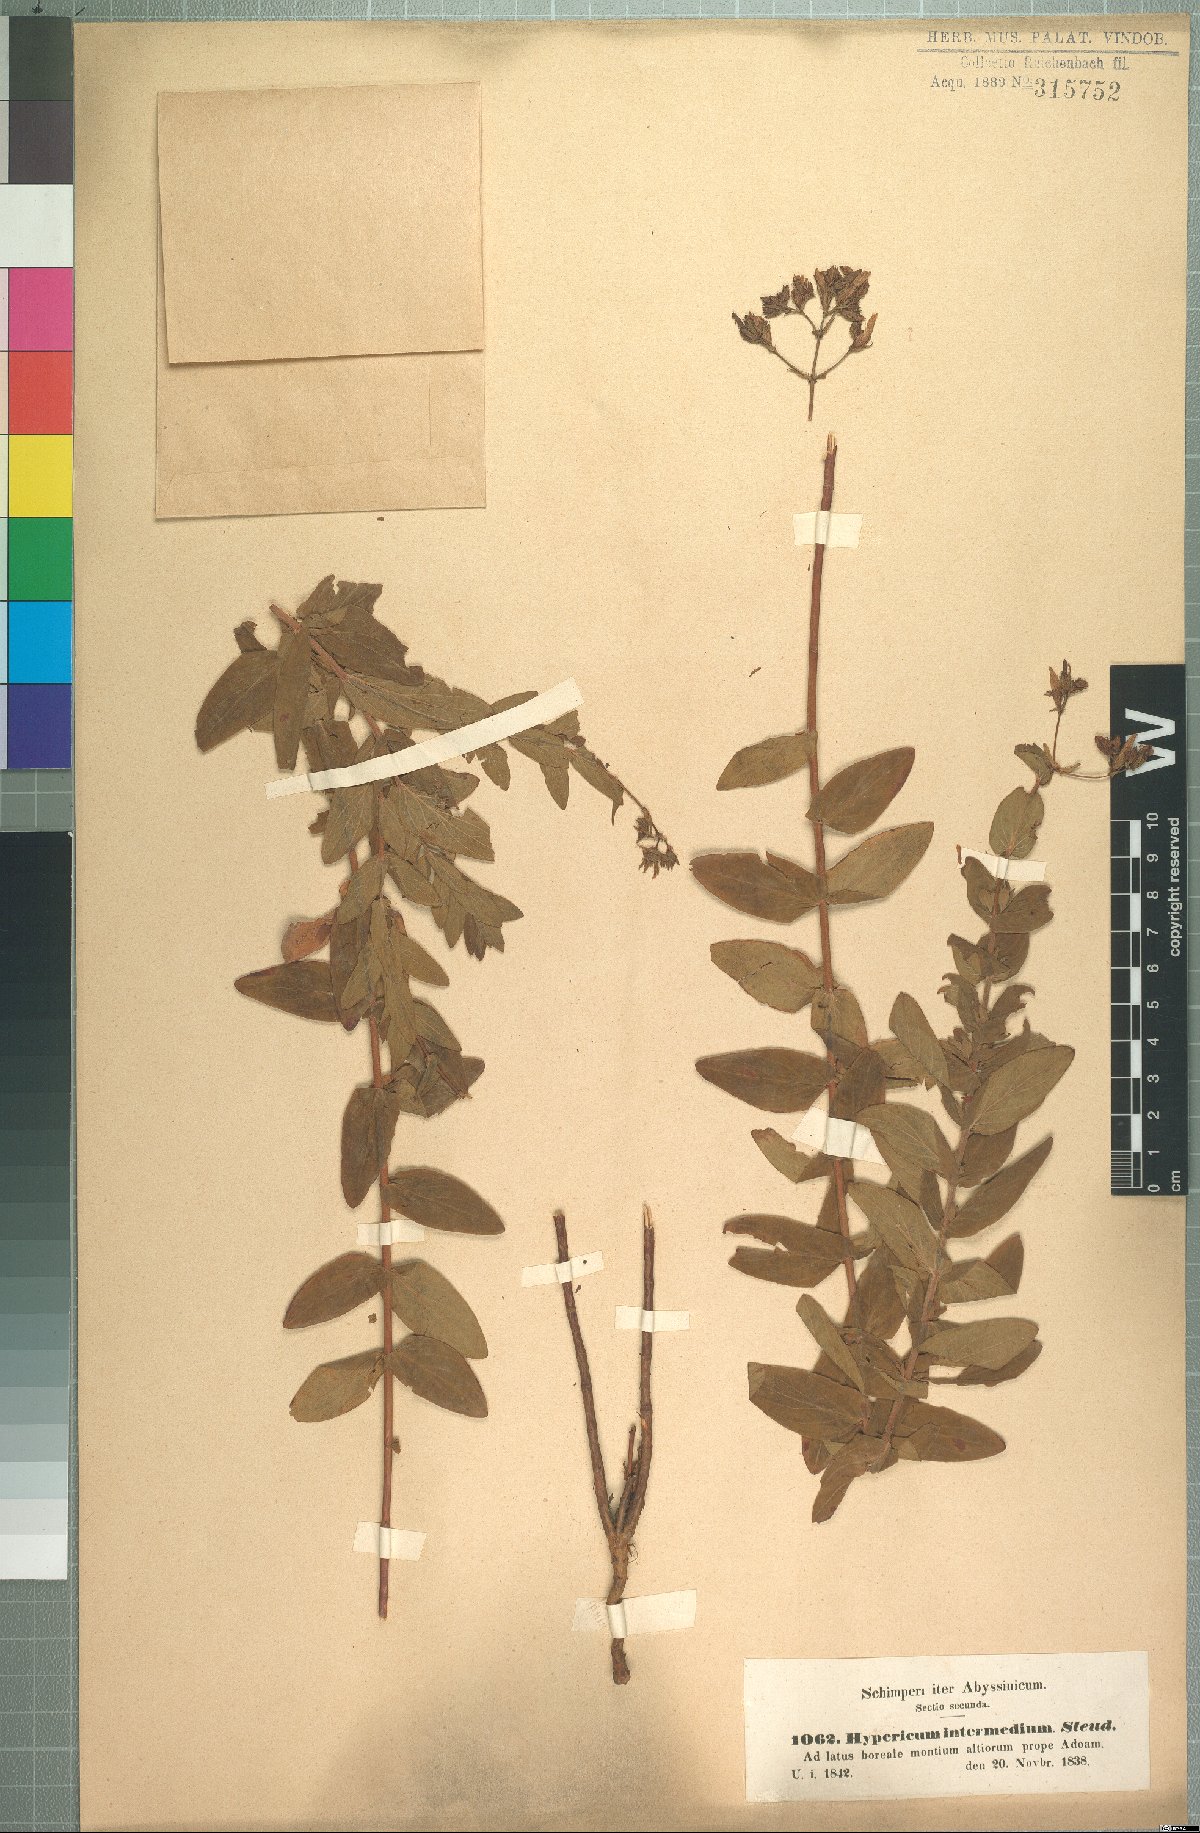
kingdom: Plantae
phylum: Tracheophyta
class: Magnoliopsida
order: Malpighiales
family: Hypericaceae
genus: Hypericum
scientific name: Hypericum annulatum
